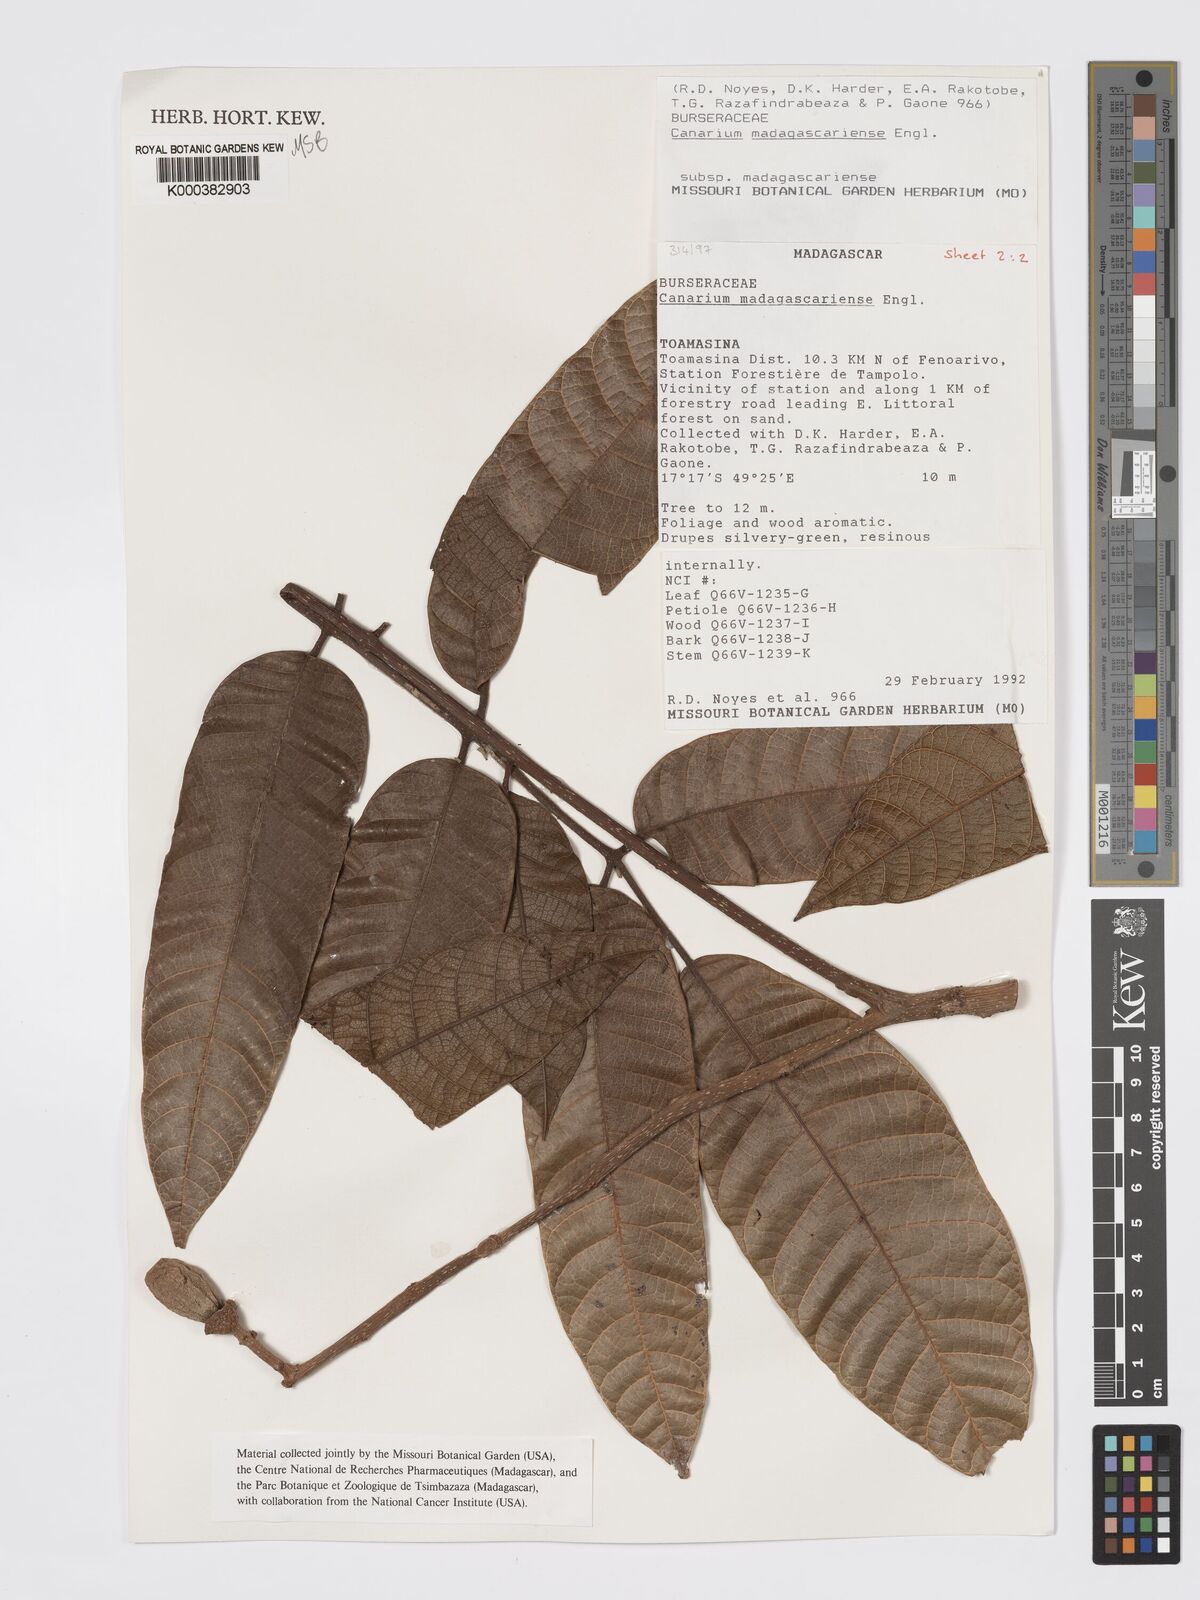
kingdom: Plantae
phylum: Tracheophyta
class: Magnoliopsida
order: Sapindales
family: Burseraceae
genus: Canarium
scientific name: Canarium madagascariense
